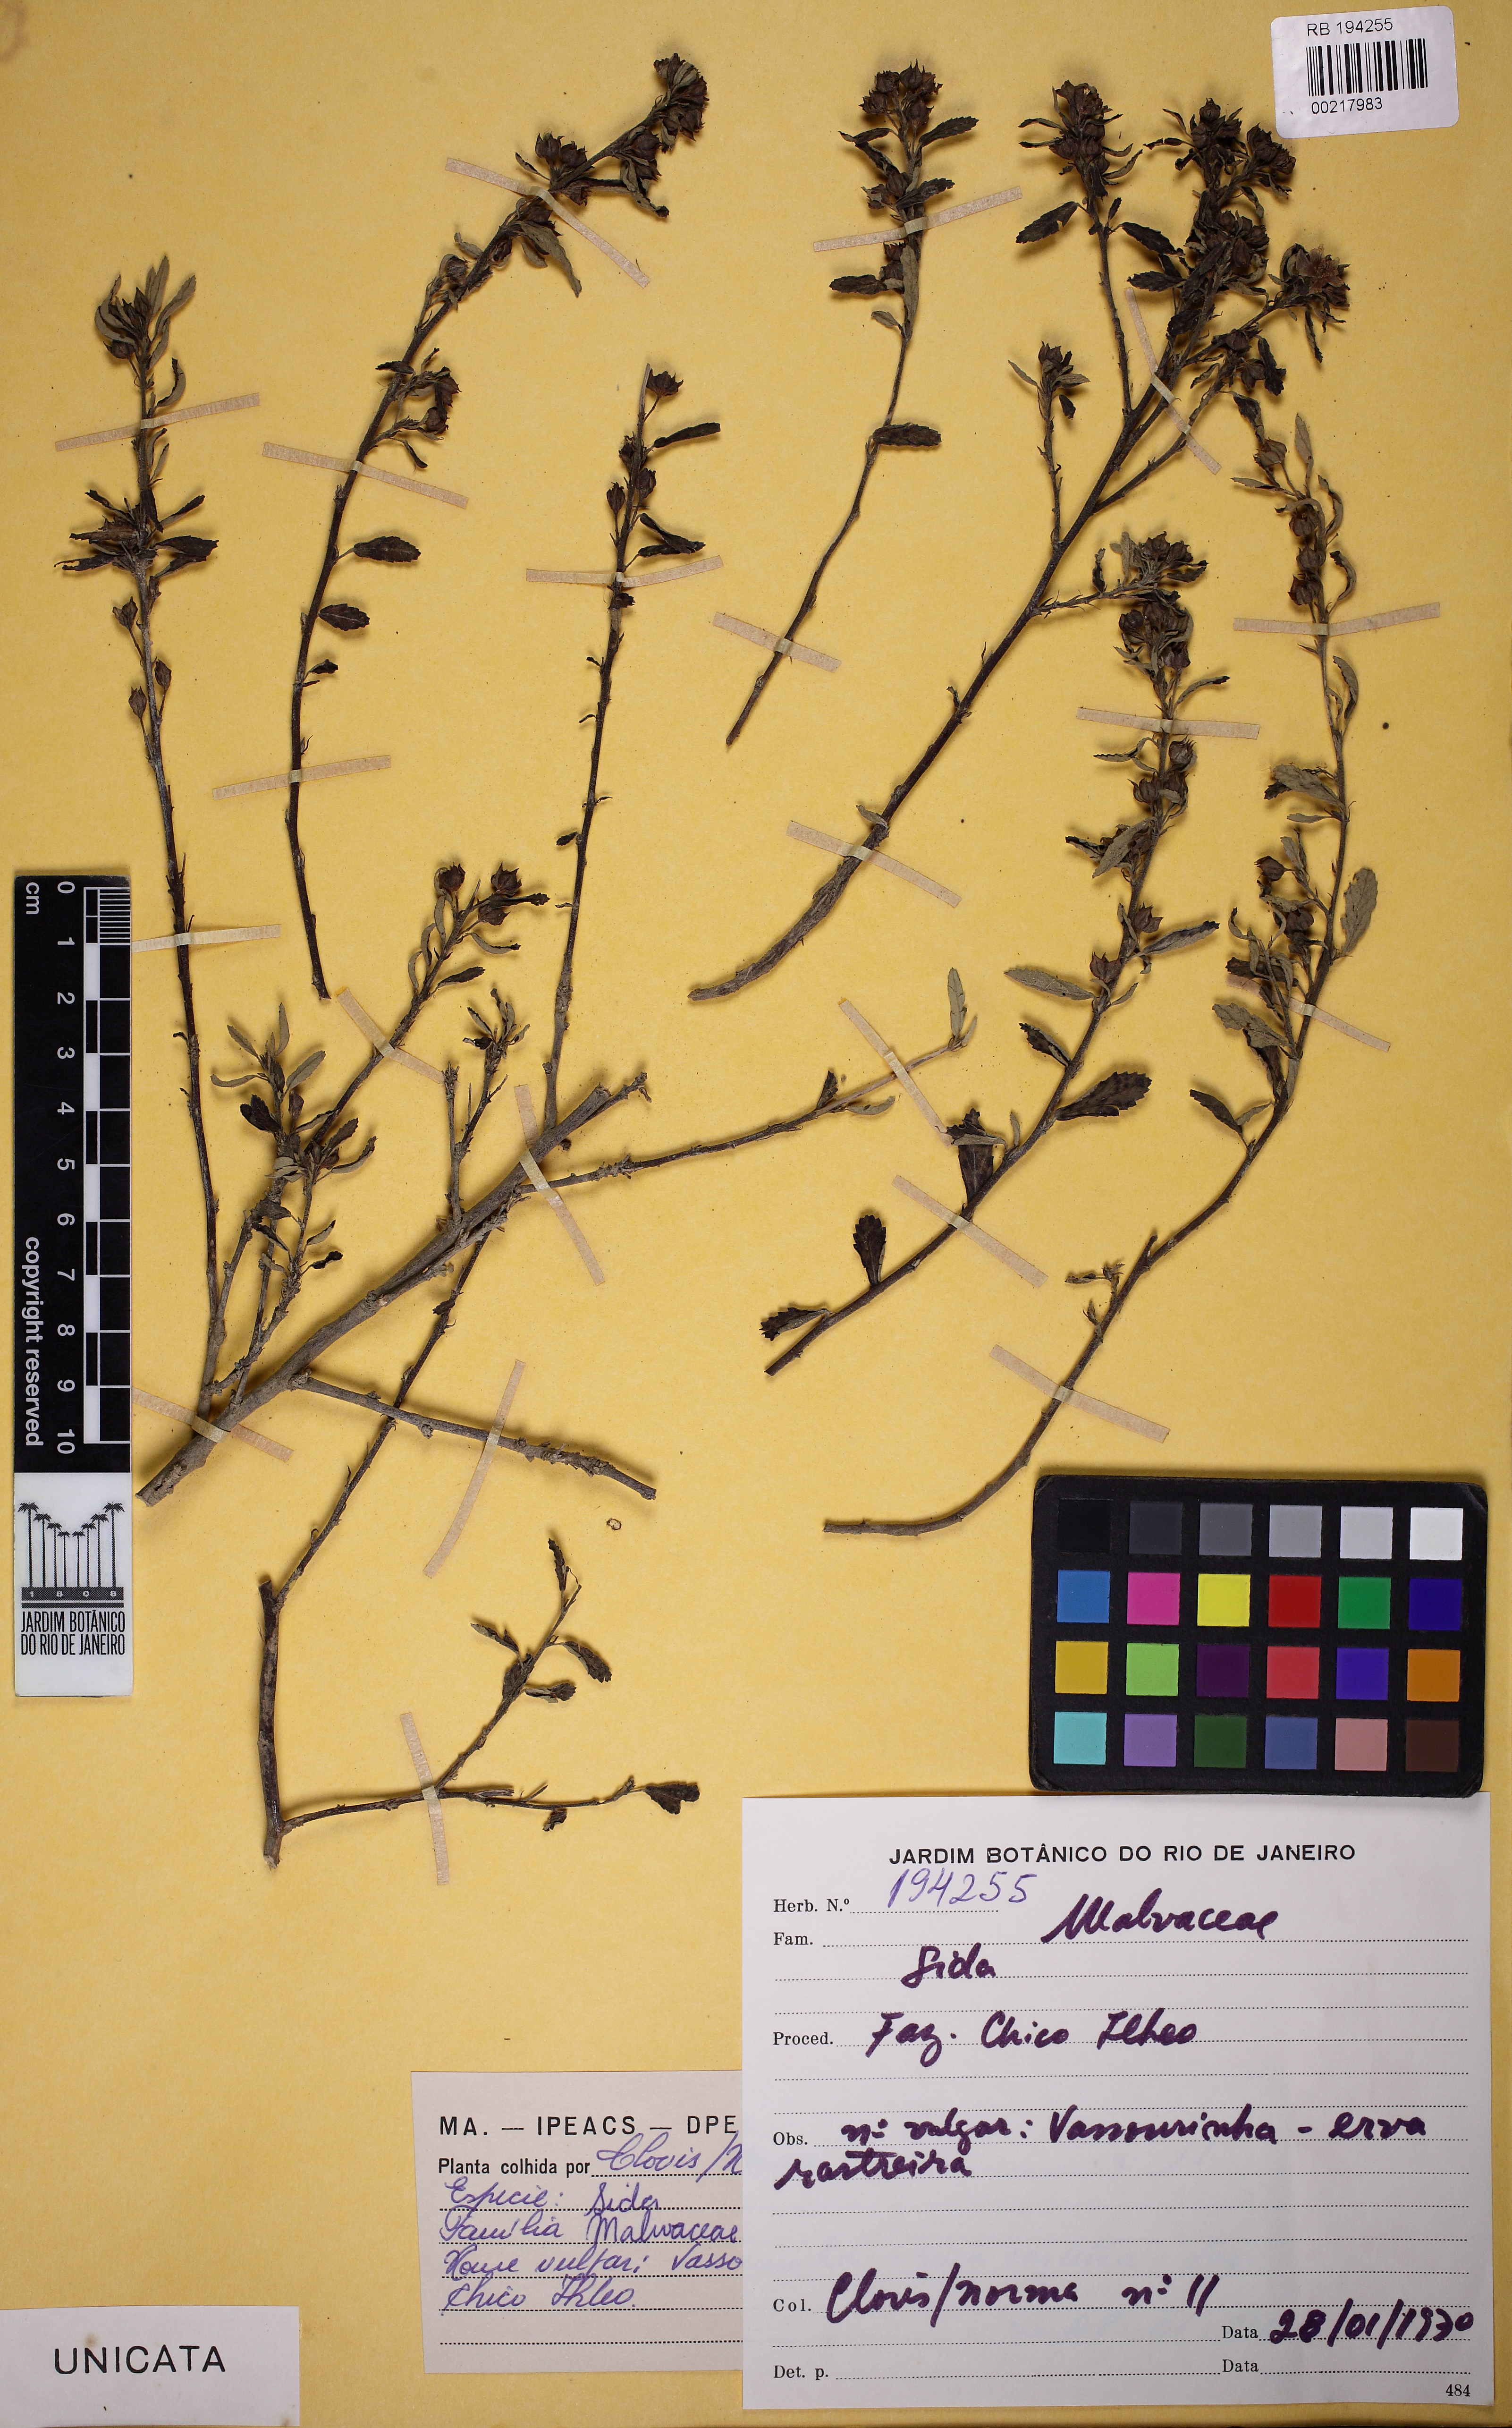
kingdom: Plantae
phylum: Tracheophyta
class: Magnoliopsida
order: Malvales
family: Malvaceae
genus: Sida
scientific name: Sida
